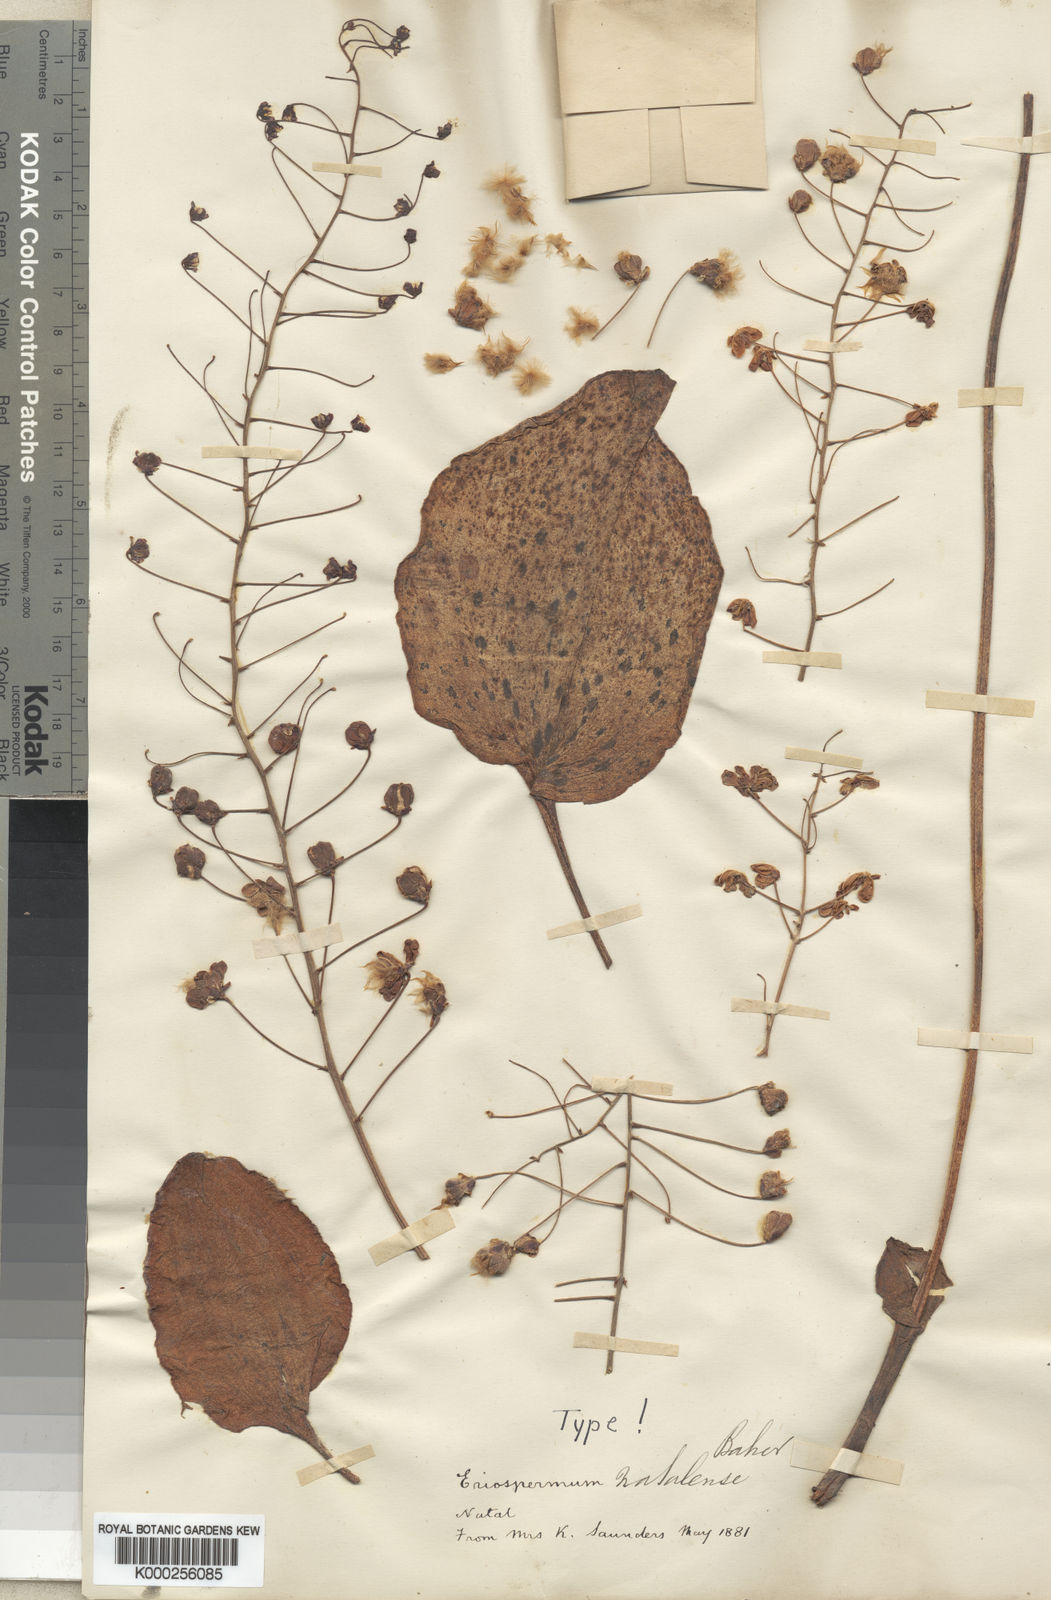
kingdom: Plantae
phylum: Tracheophyta
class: Liliopsida
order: Asparagales
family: Asparagaceae
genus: Eriospermum
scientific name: Eriospermum cooperi
